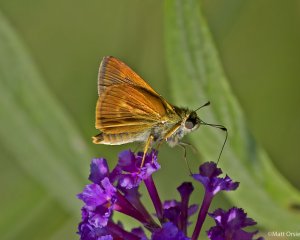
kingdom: Animalia
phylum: Arthropoda
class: Insecta
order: Lepidoptera
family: Hesperiidae
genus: Wallengrenia
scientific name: Wallengrenia otho
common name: Southern Broken-Dash
